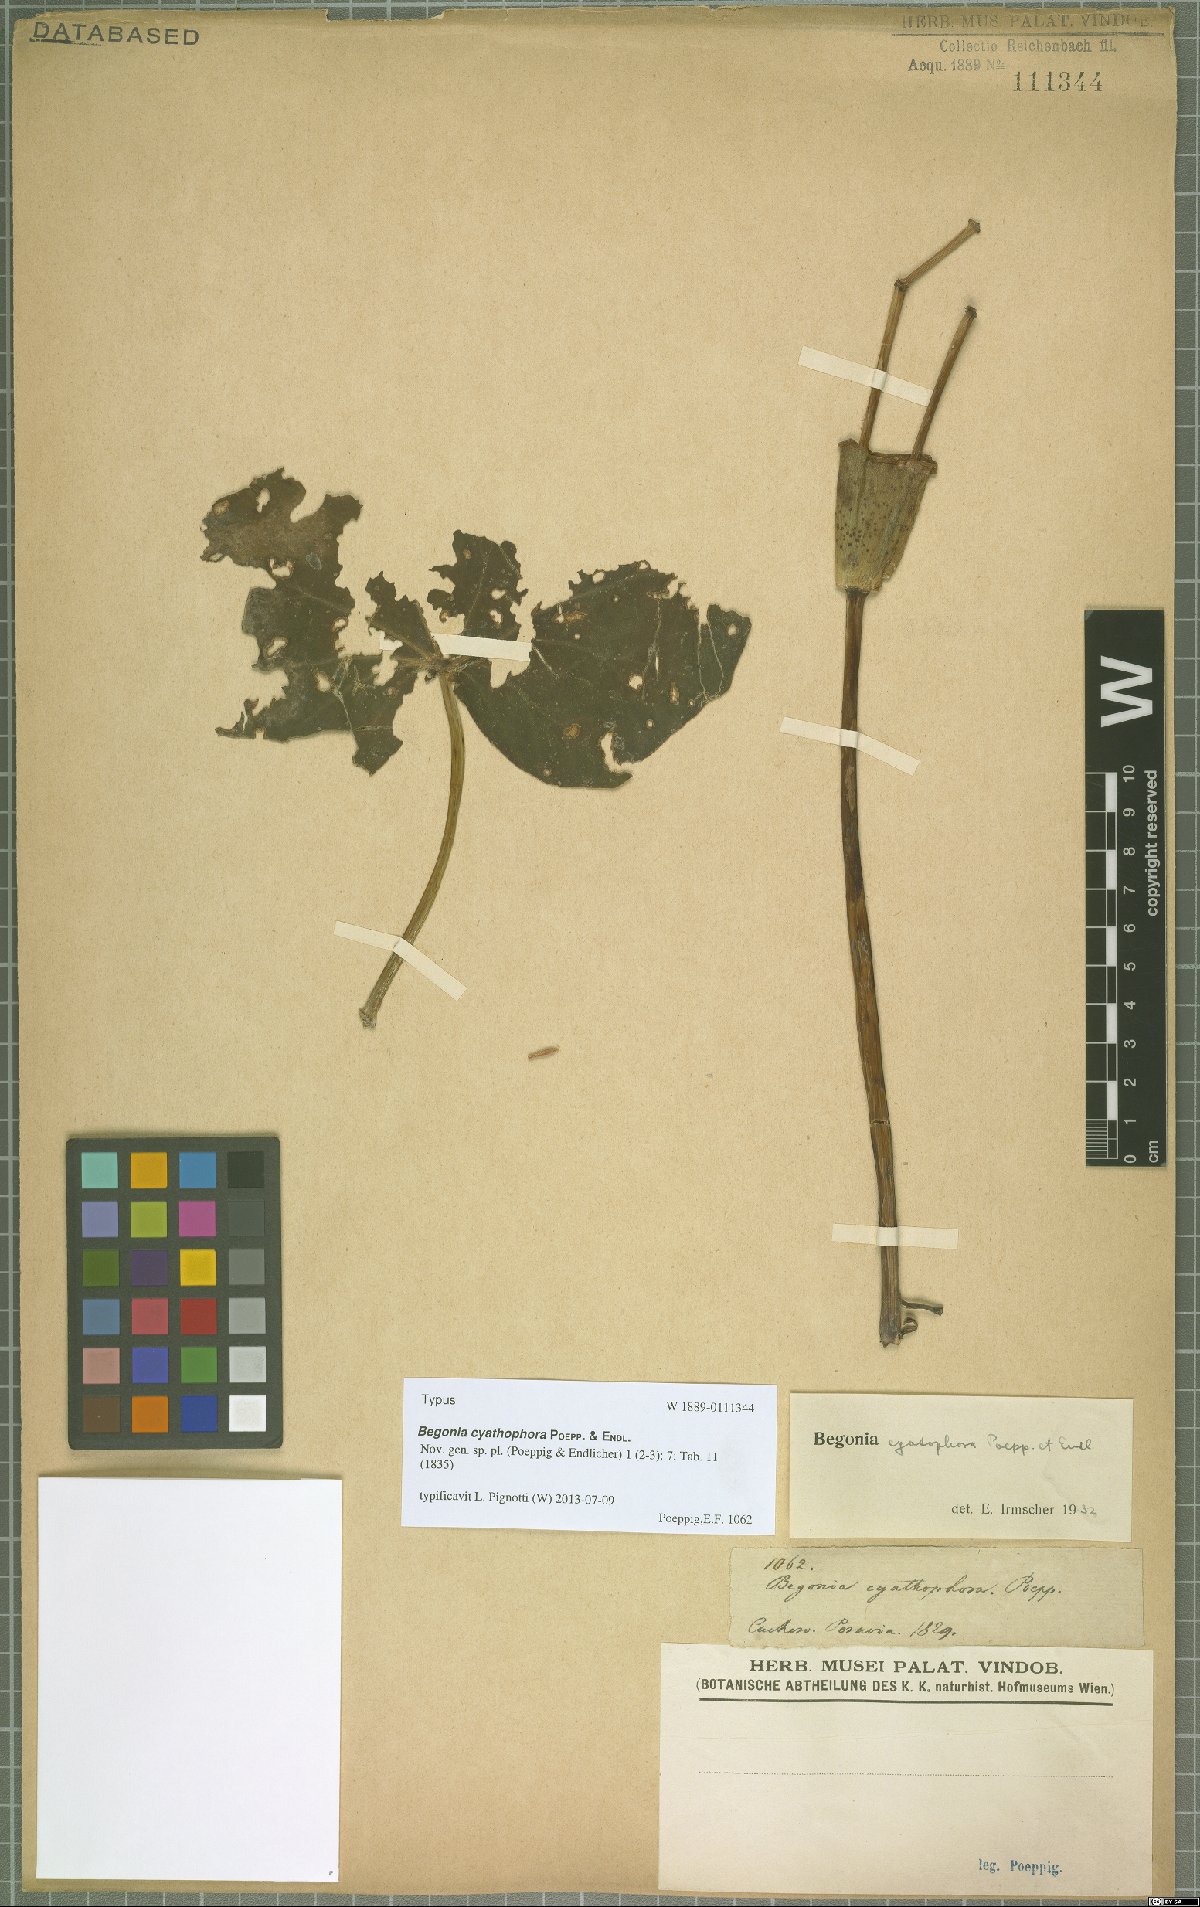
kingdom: Plantae
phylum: Tracheophyta
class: Magnoliopsida
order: Cucurbitales
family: Begoniaceae
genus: Begonia
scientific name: Begonia cyathophora
